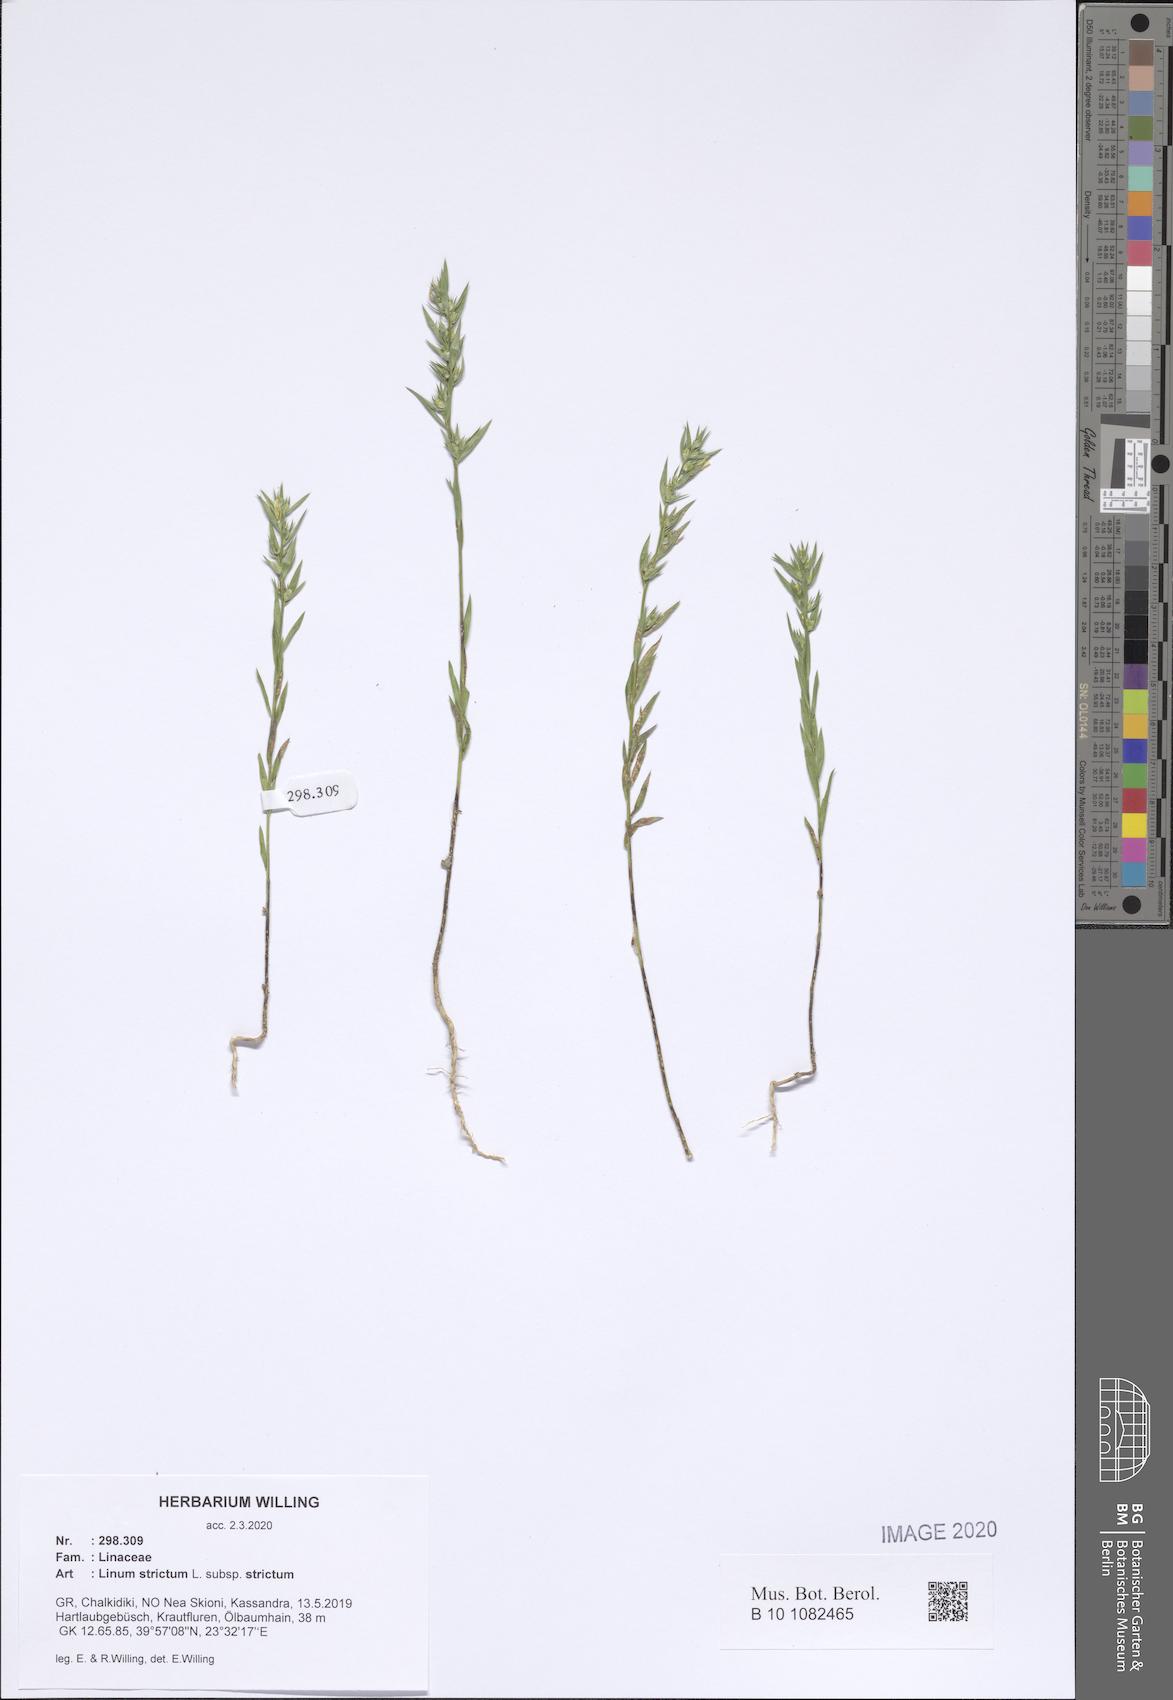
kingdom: Plantae
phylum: Tracheophyta
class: Magnoliopsida
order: Malpighiales
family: Linaceae
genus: Linum
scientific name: Linum strictum
